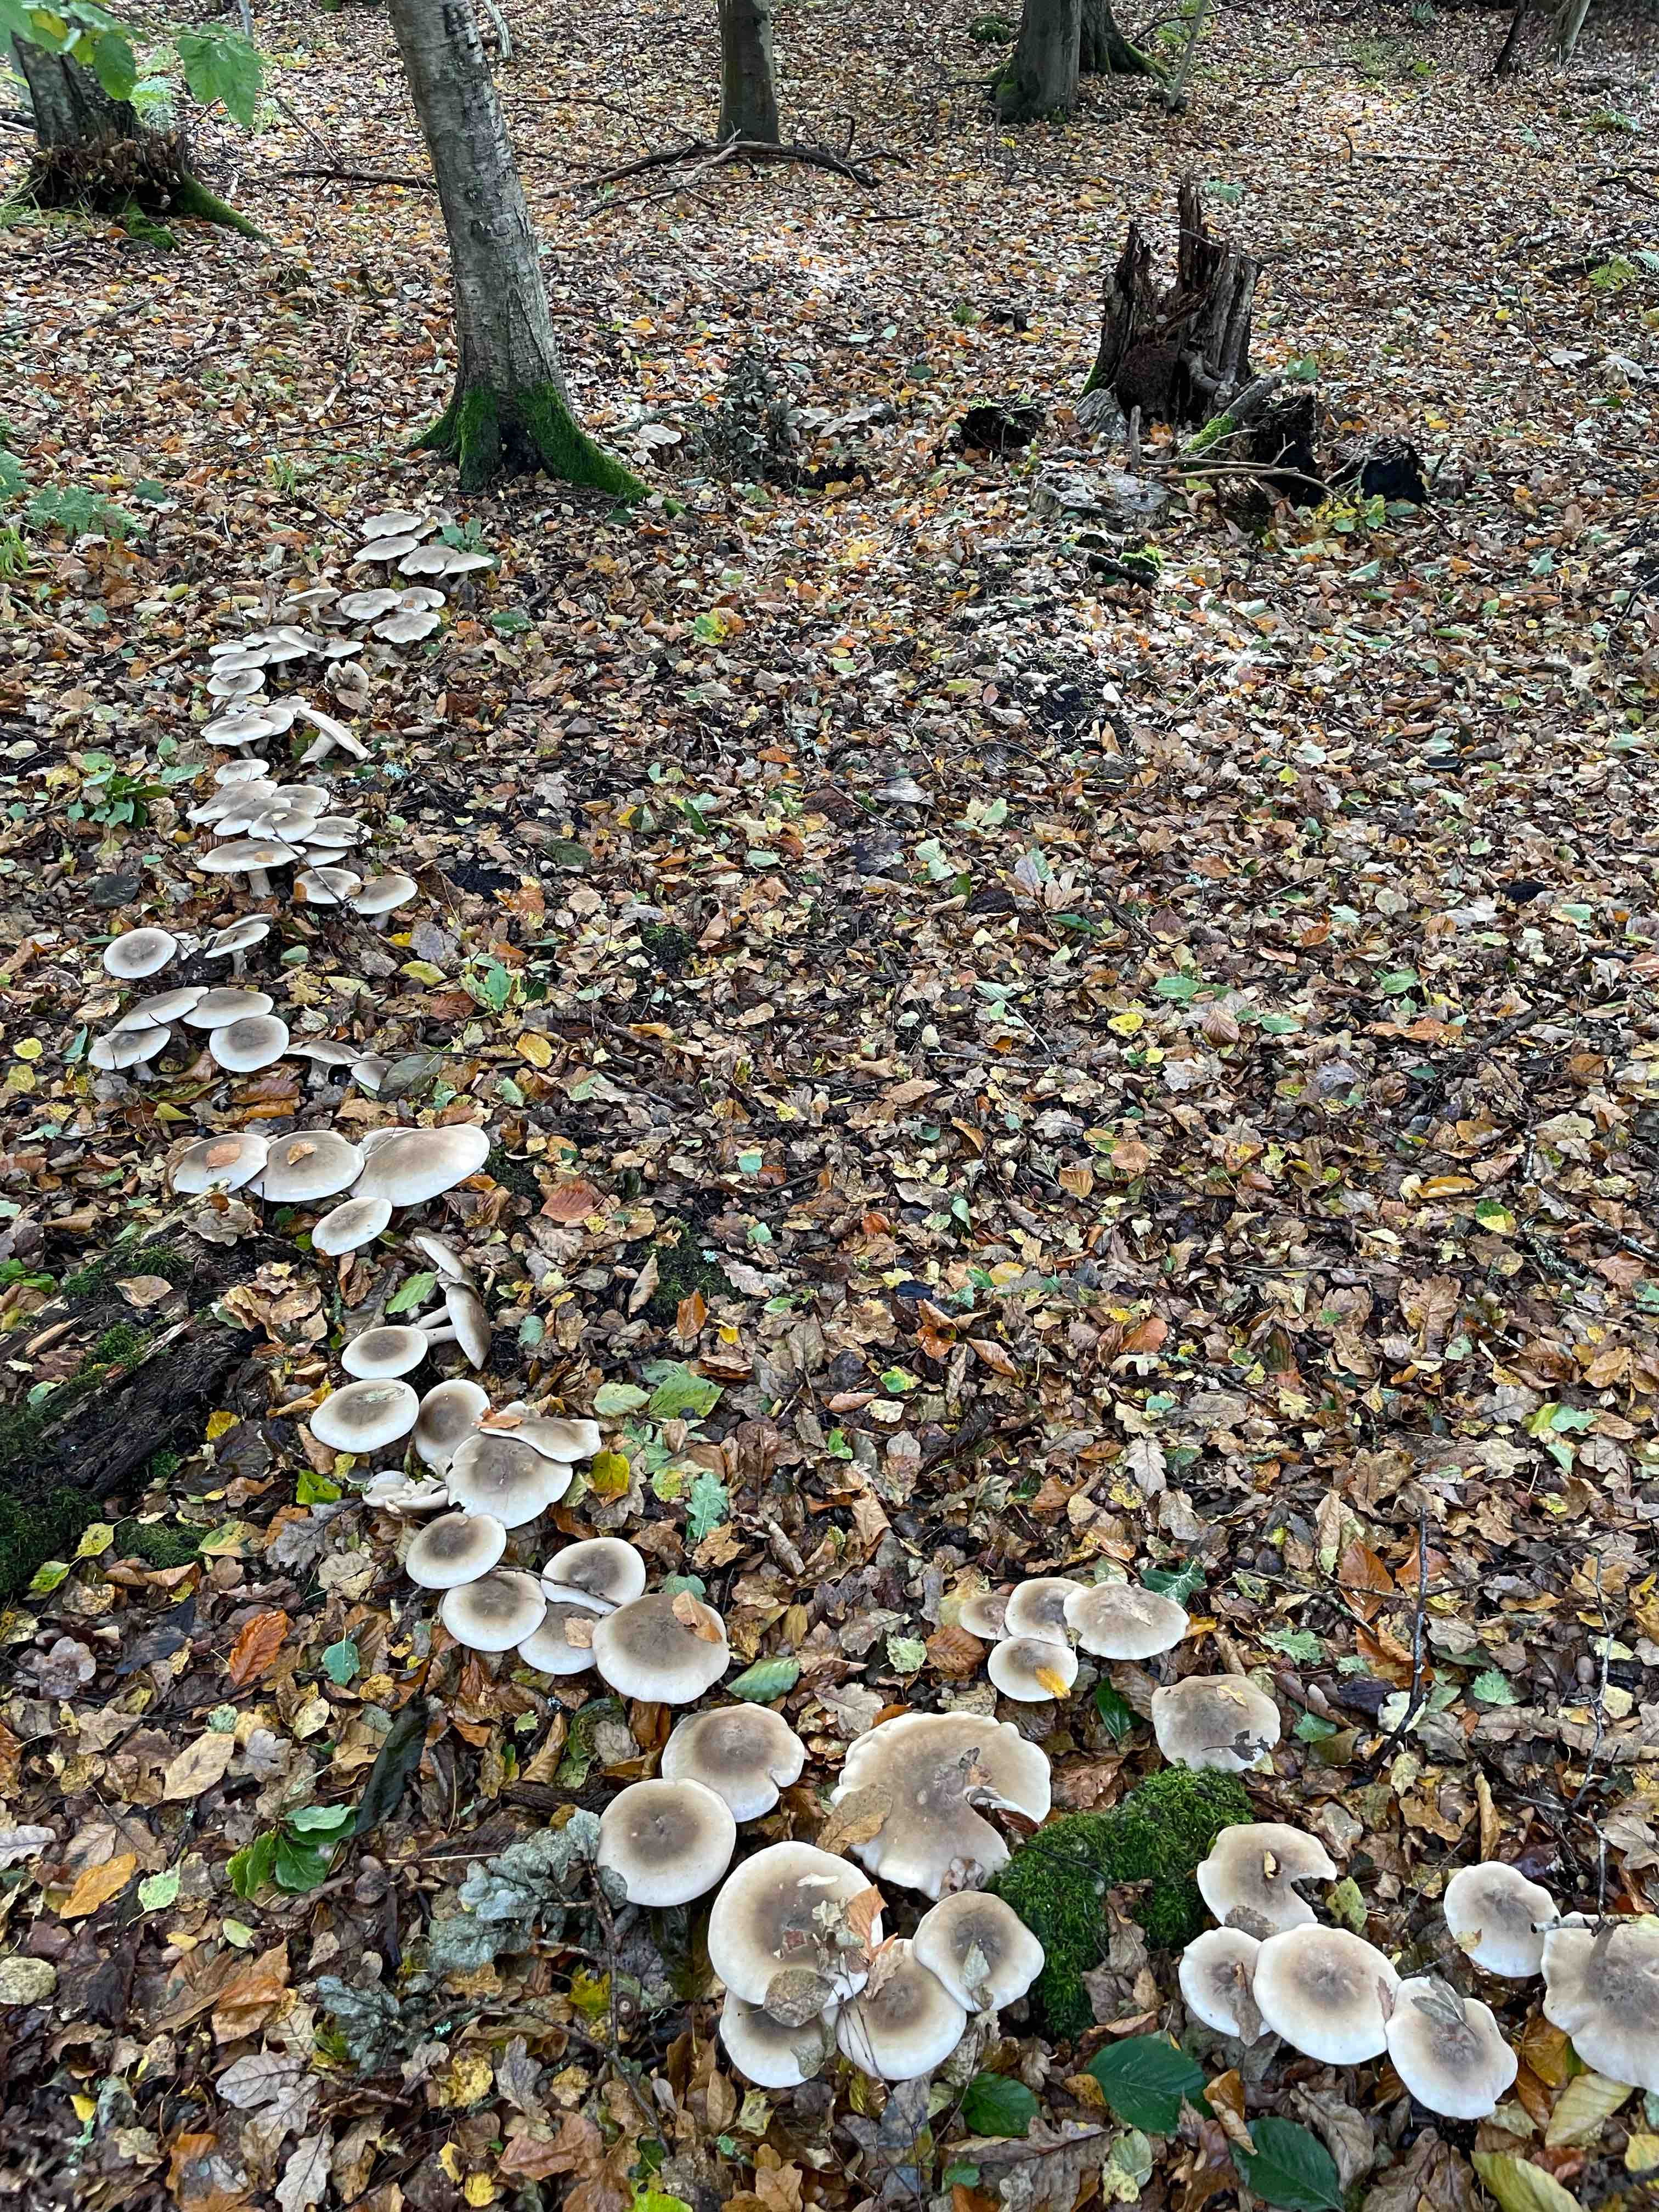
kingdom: Fungi
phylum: Basidiomycota
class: Agaricomycetes
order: Agaricales
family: Tricholomataceae
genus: Clitocybe
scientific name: Clitocybe nebularis
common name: tåge-tragthat
